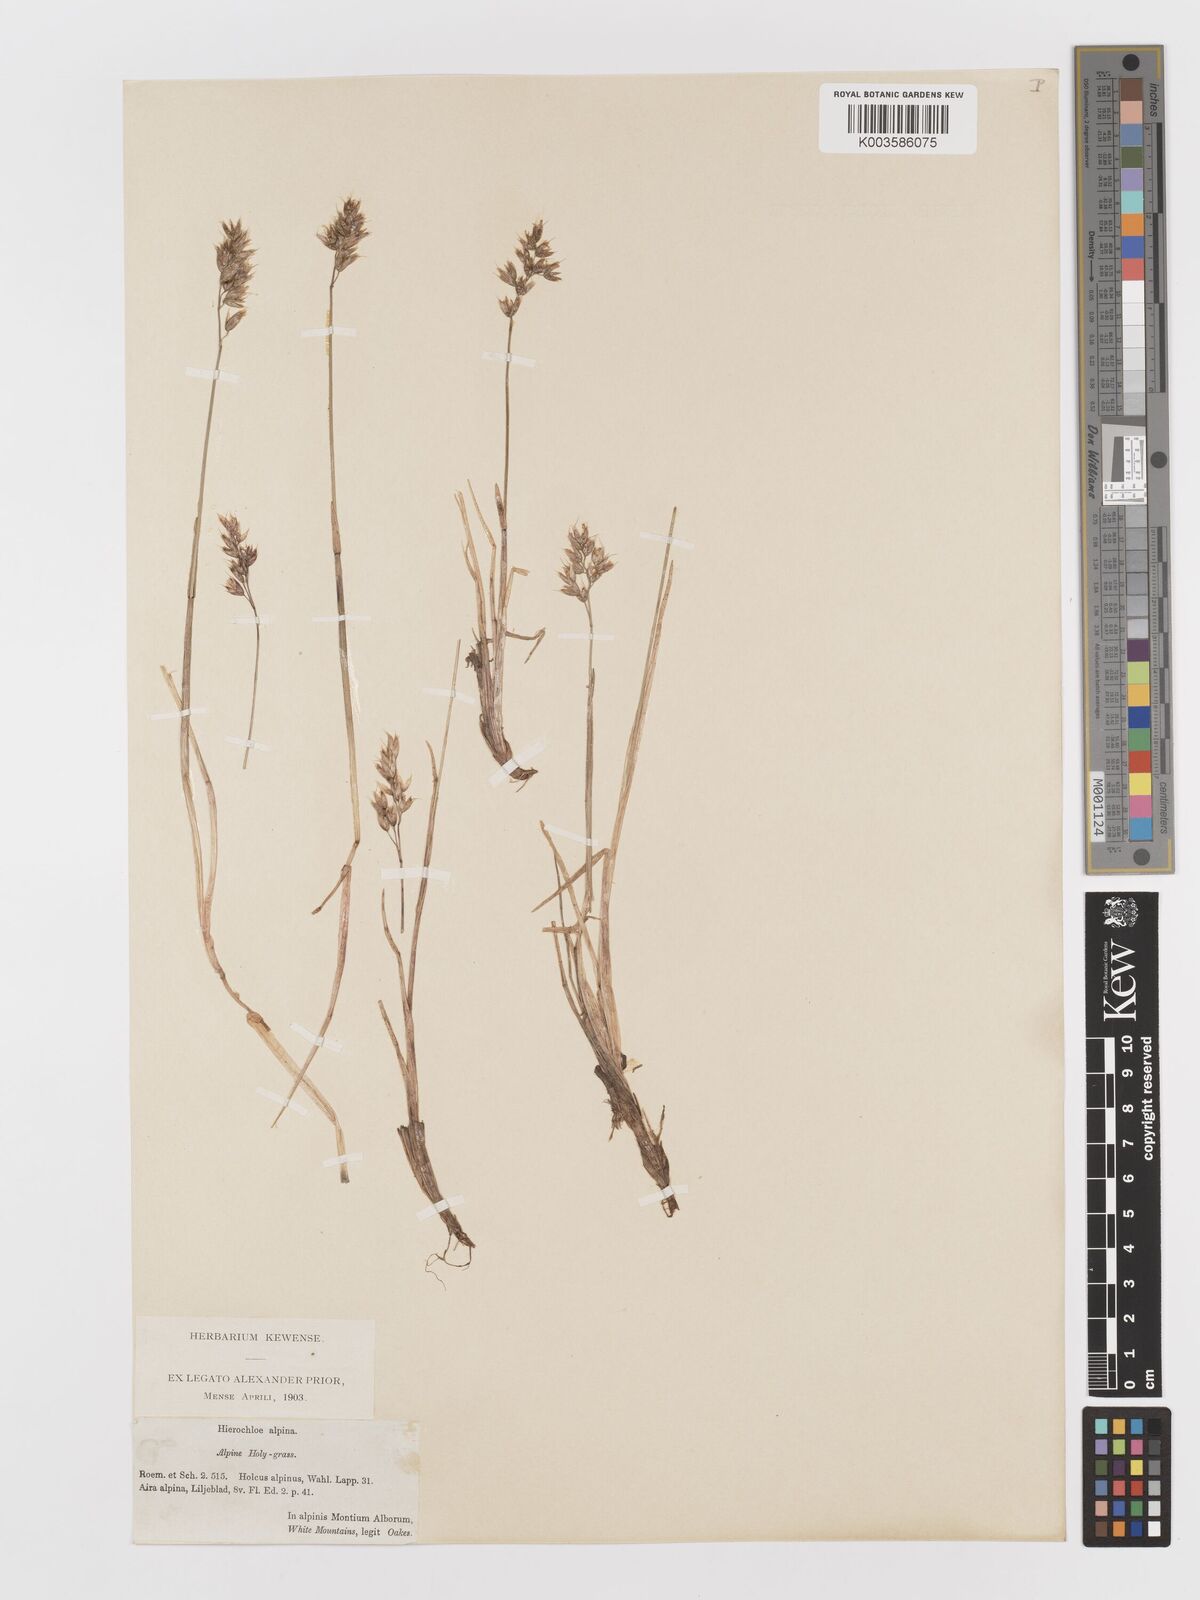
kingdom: Plantae
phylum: Tracheophyta
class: Liliopsida
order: Poales
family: Poaceae
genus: Anthoxanthum
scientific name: Anthoxanthum monticola
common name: Alpine sweetgrass
